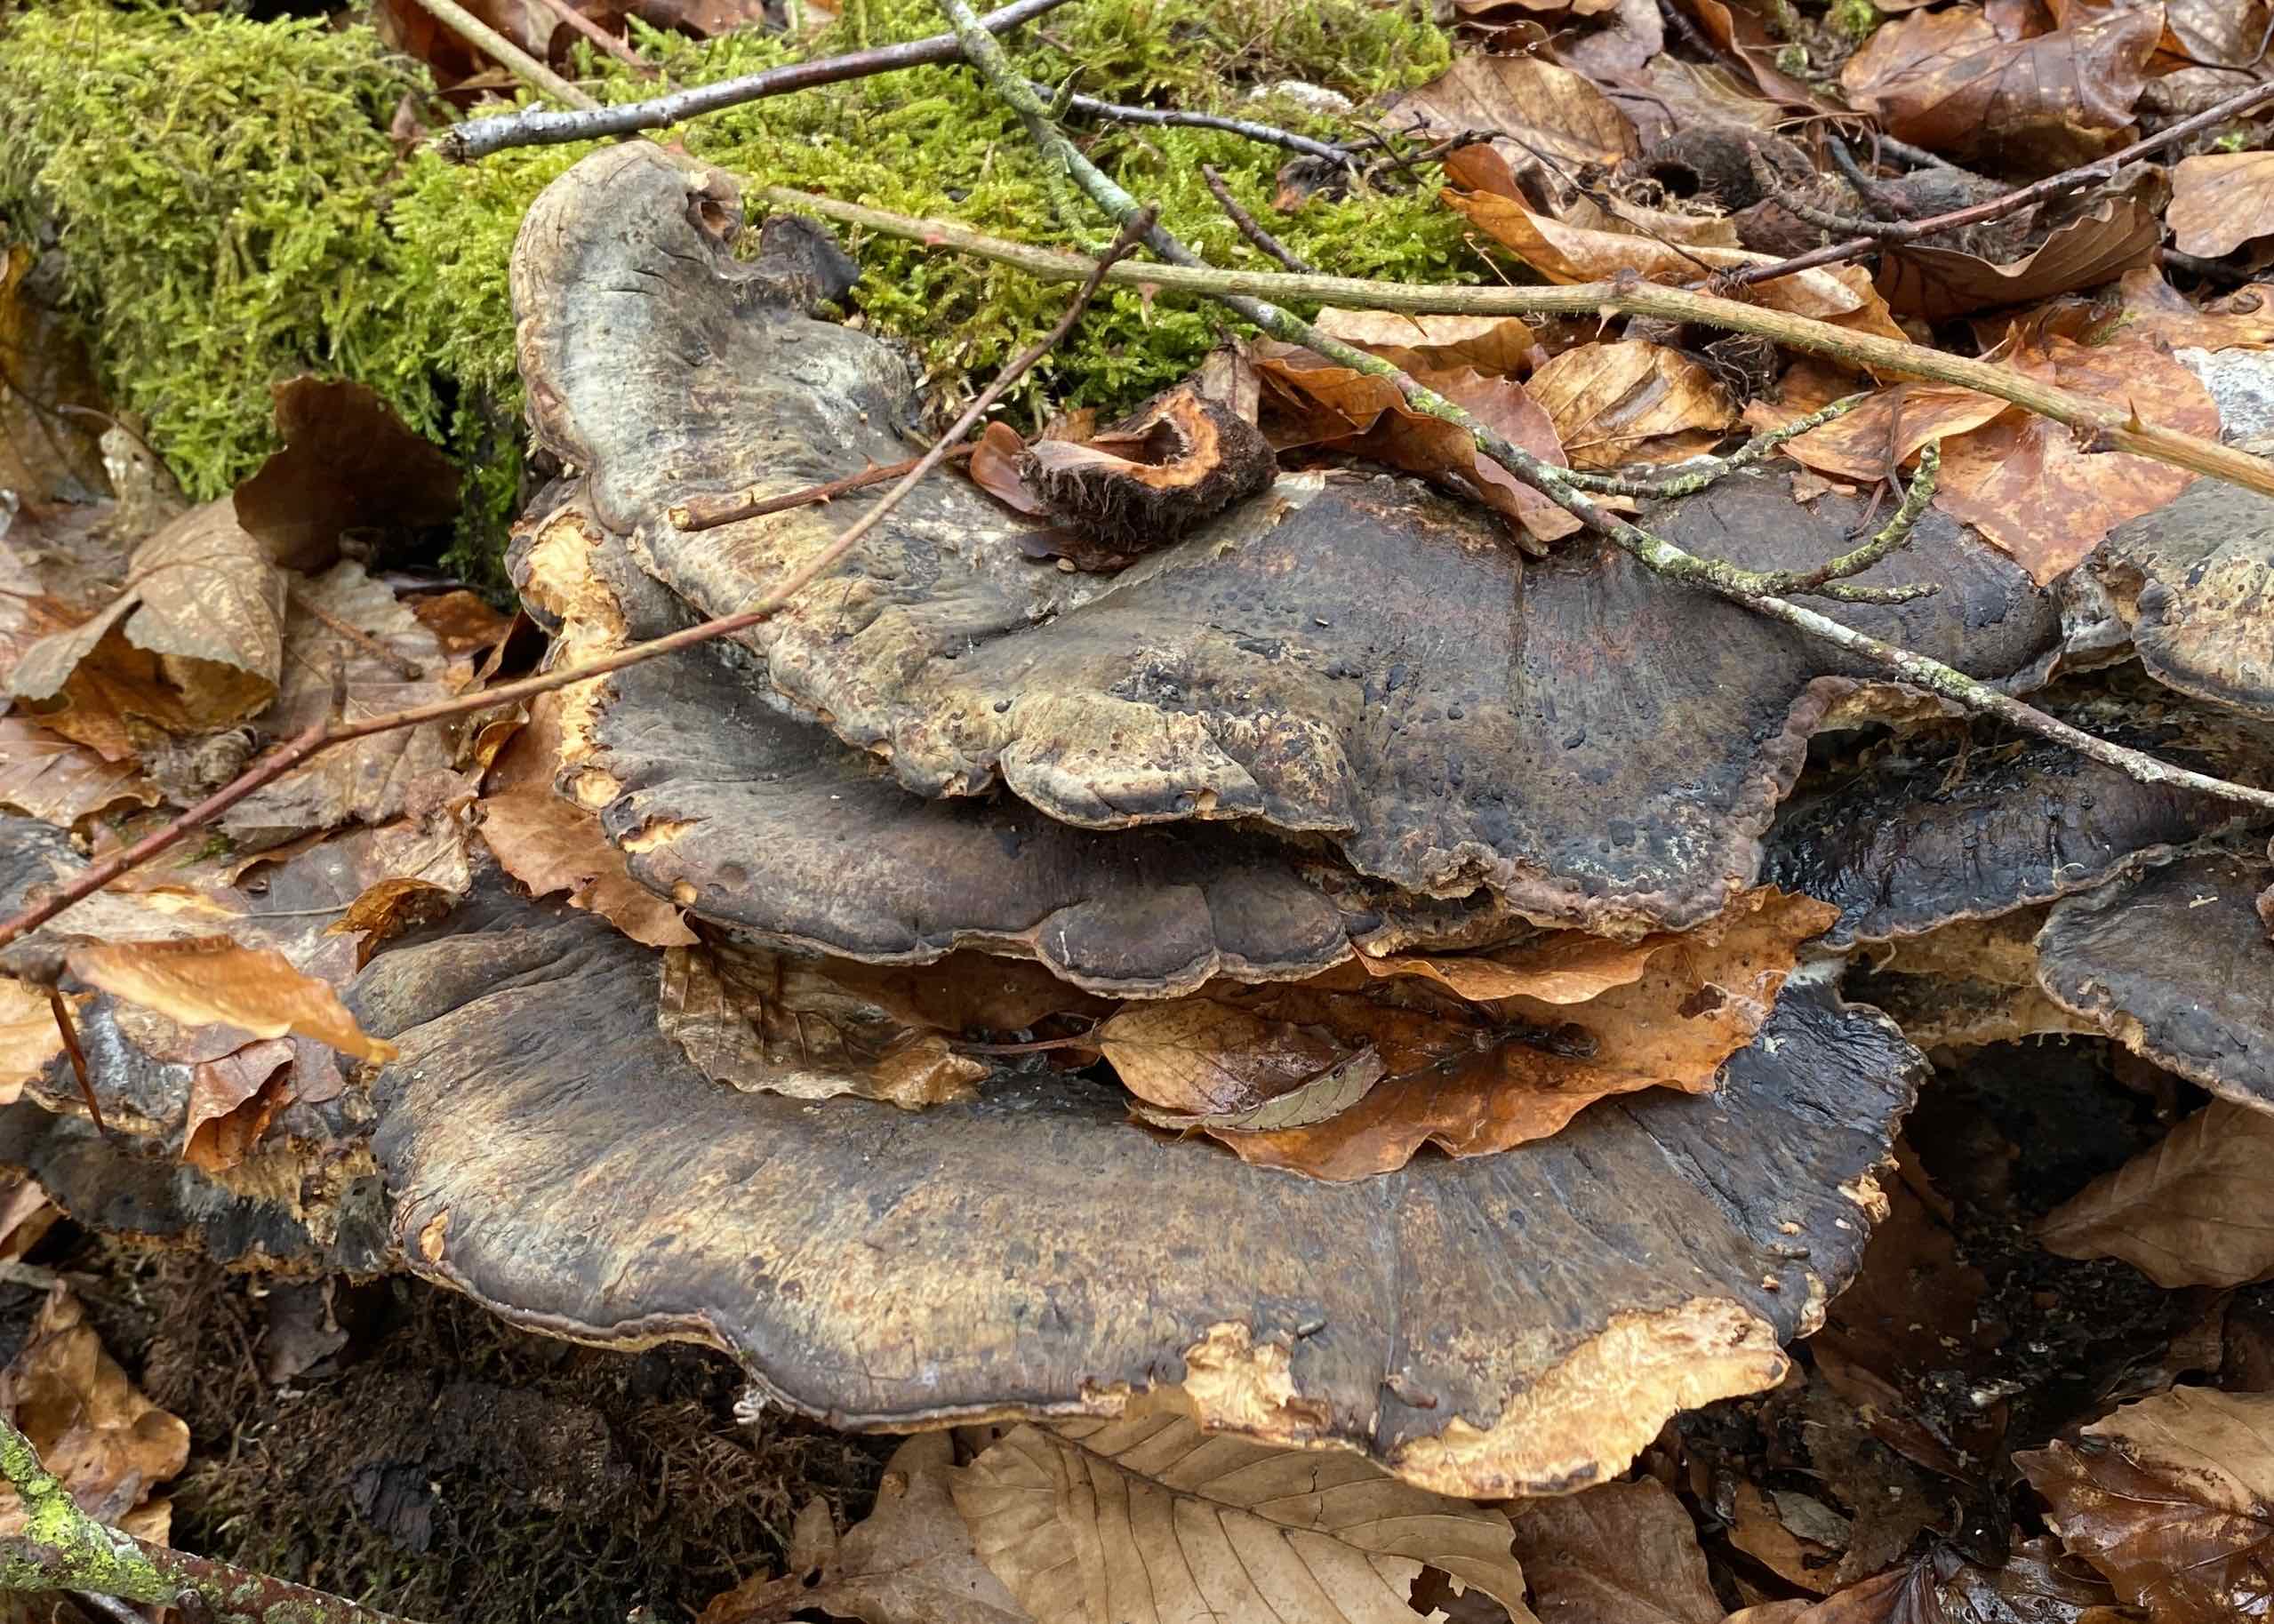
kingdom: Fungi
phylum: Basidiomycota
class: Agaricomycetes
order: Polyporales
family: Ischnodermataceae
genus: Ischnoderma
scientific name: Ischnoderma resinosum
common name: løv-tjæreporesvamp
